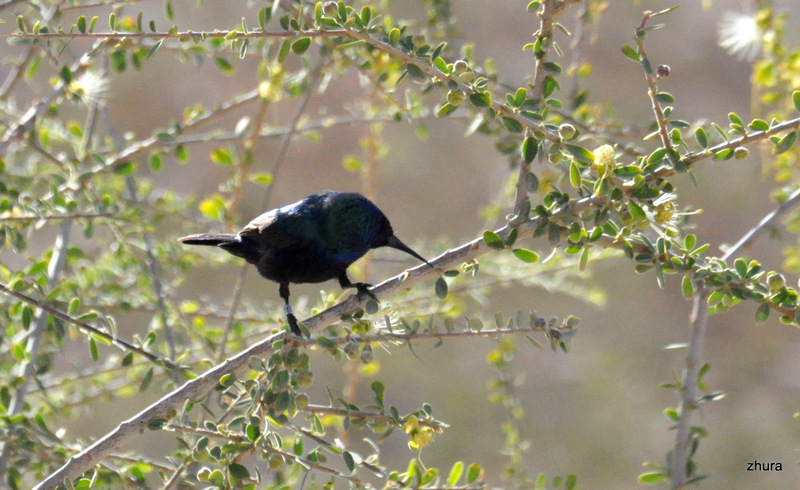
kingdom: Animalia
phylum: Chordata
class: Aves
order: Passeriformes
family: Nectariniidae
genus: Cinnyris
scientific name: Cinnyris osea
